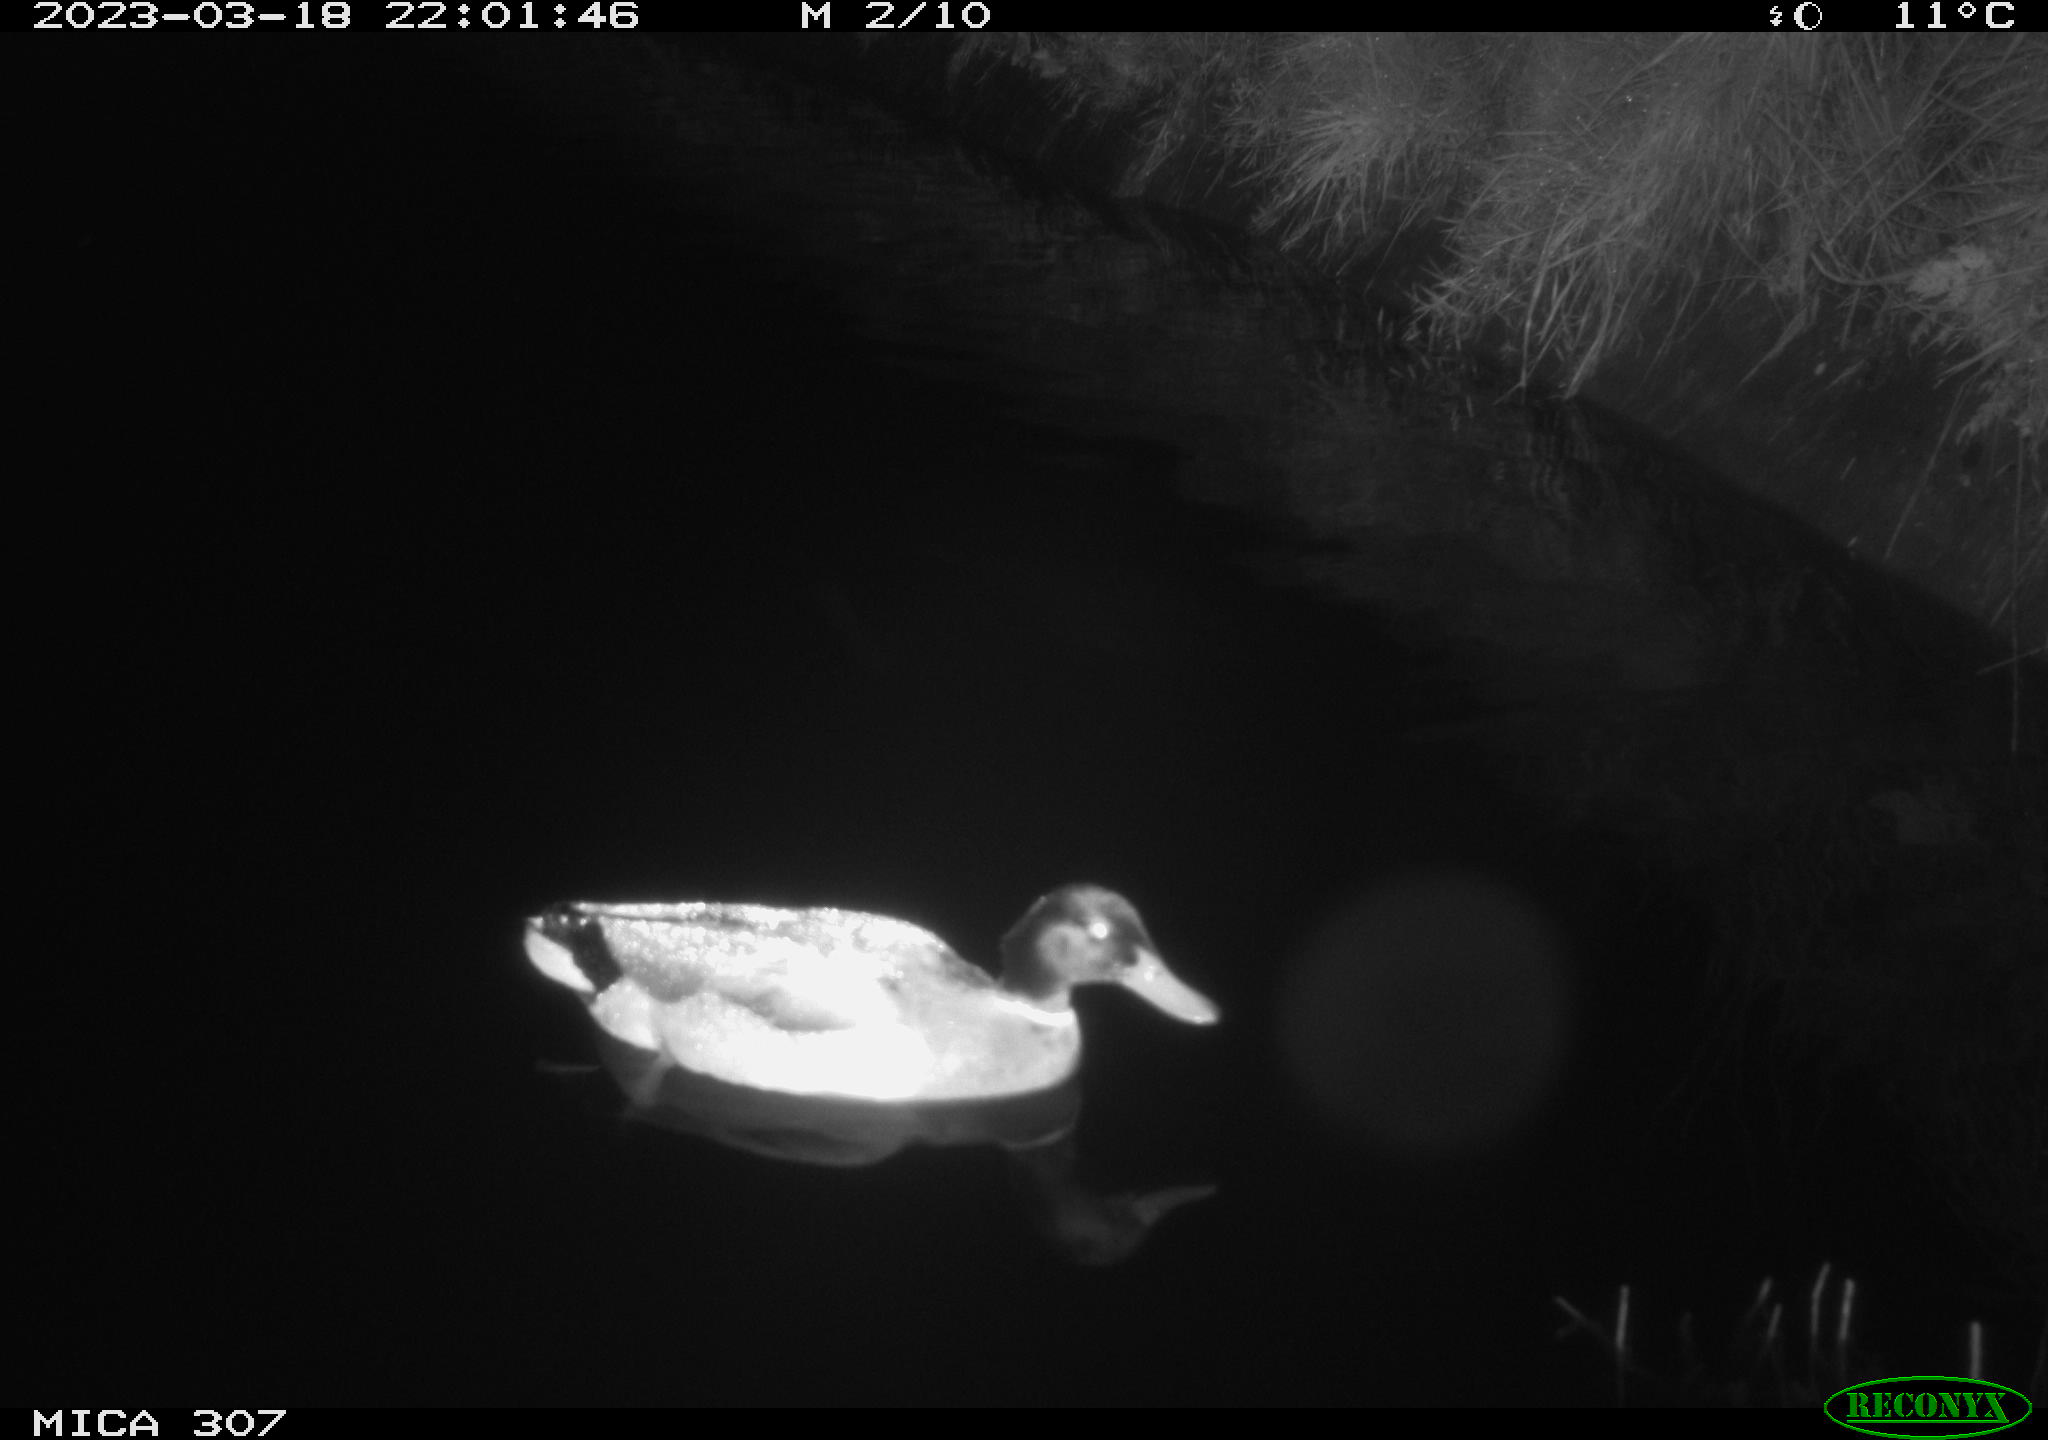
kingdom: Animalia
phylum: Chordata
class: Aves
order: Anseriformes
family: Anatidae
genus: Anas
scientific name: Anas
